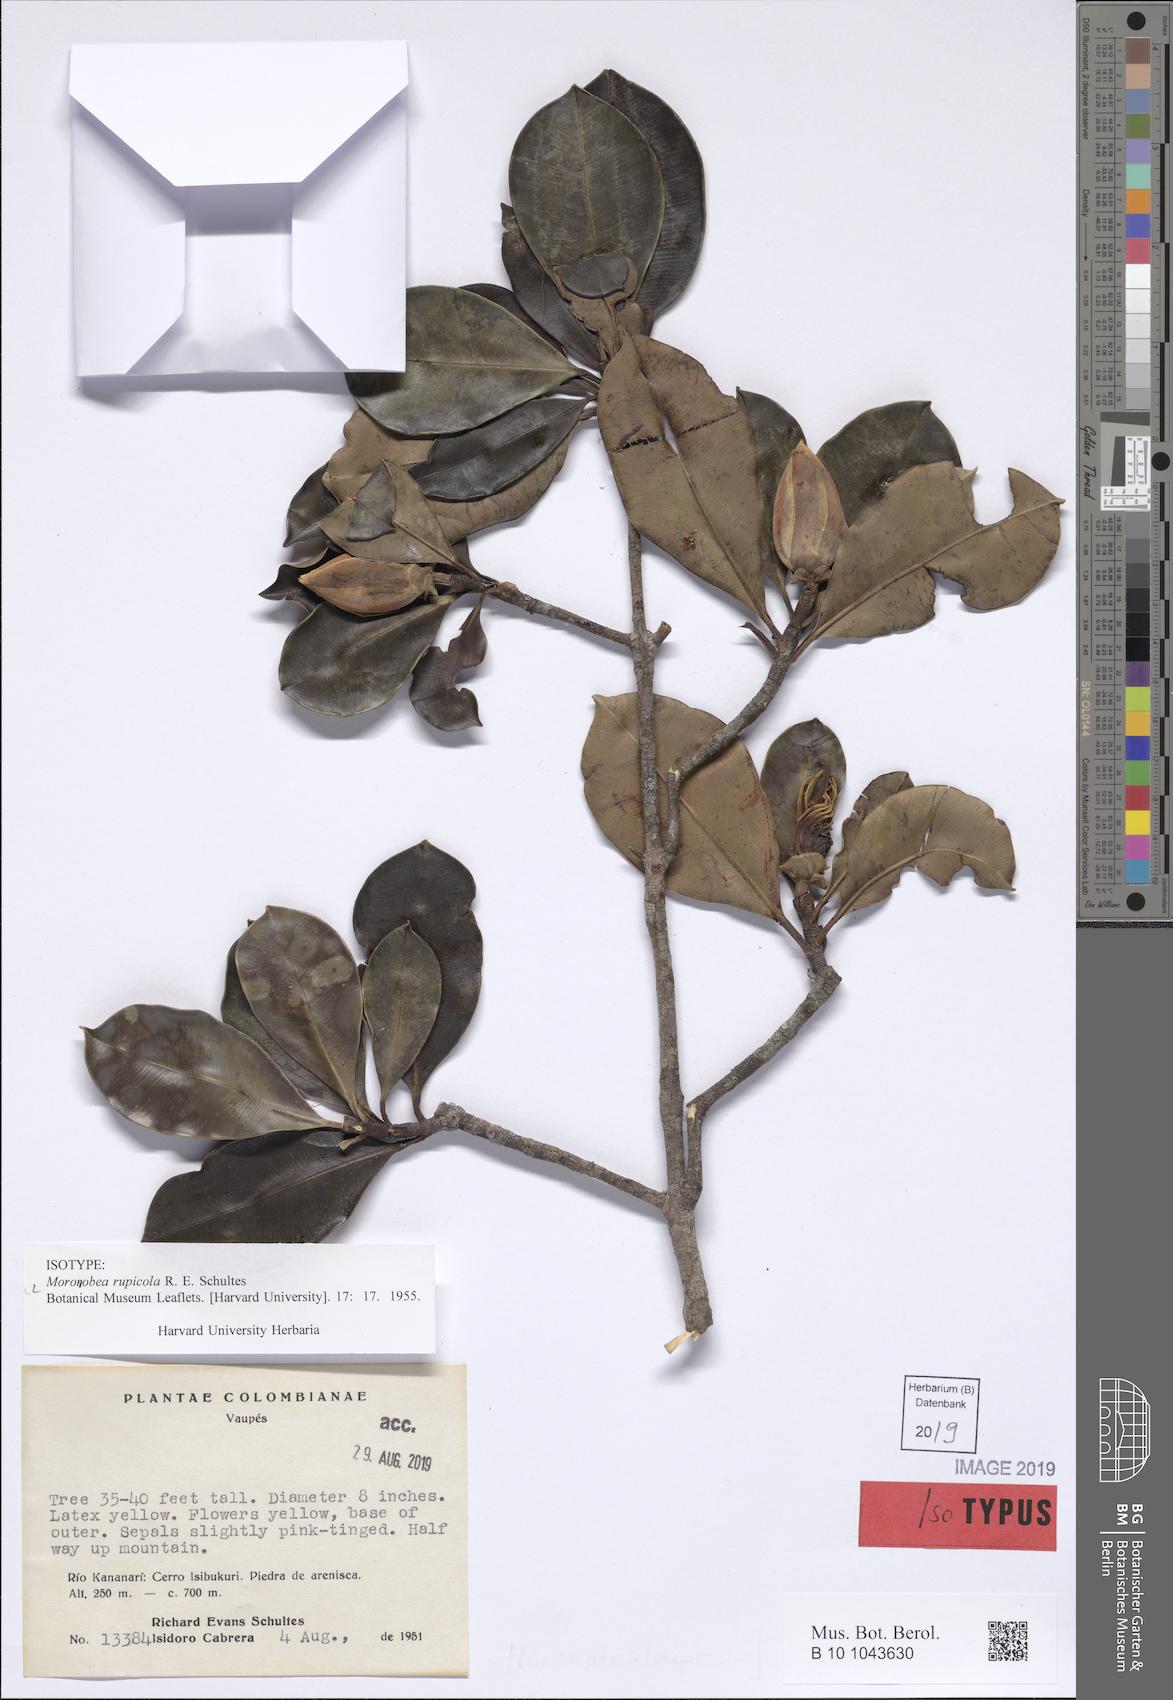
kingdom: Plantae
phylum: Tracheophyta
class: Magnoliopsida
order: Malpighiales
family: Clusiaceae
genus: Moronobea
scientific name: Moronobea riparia
